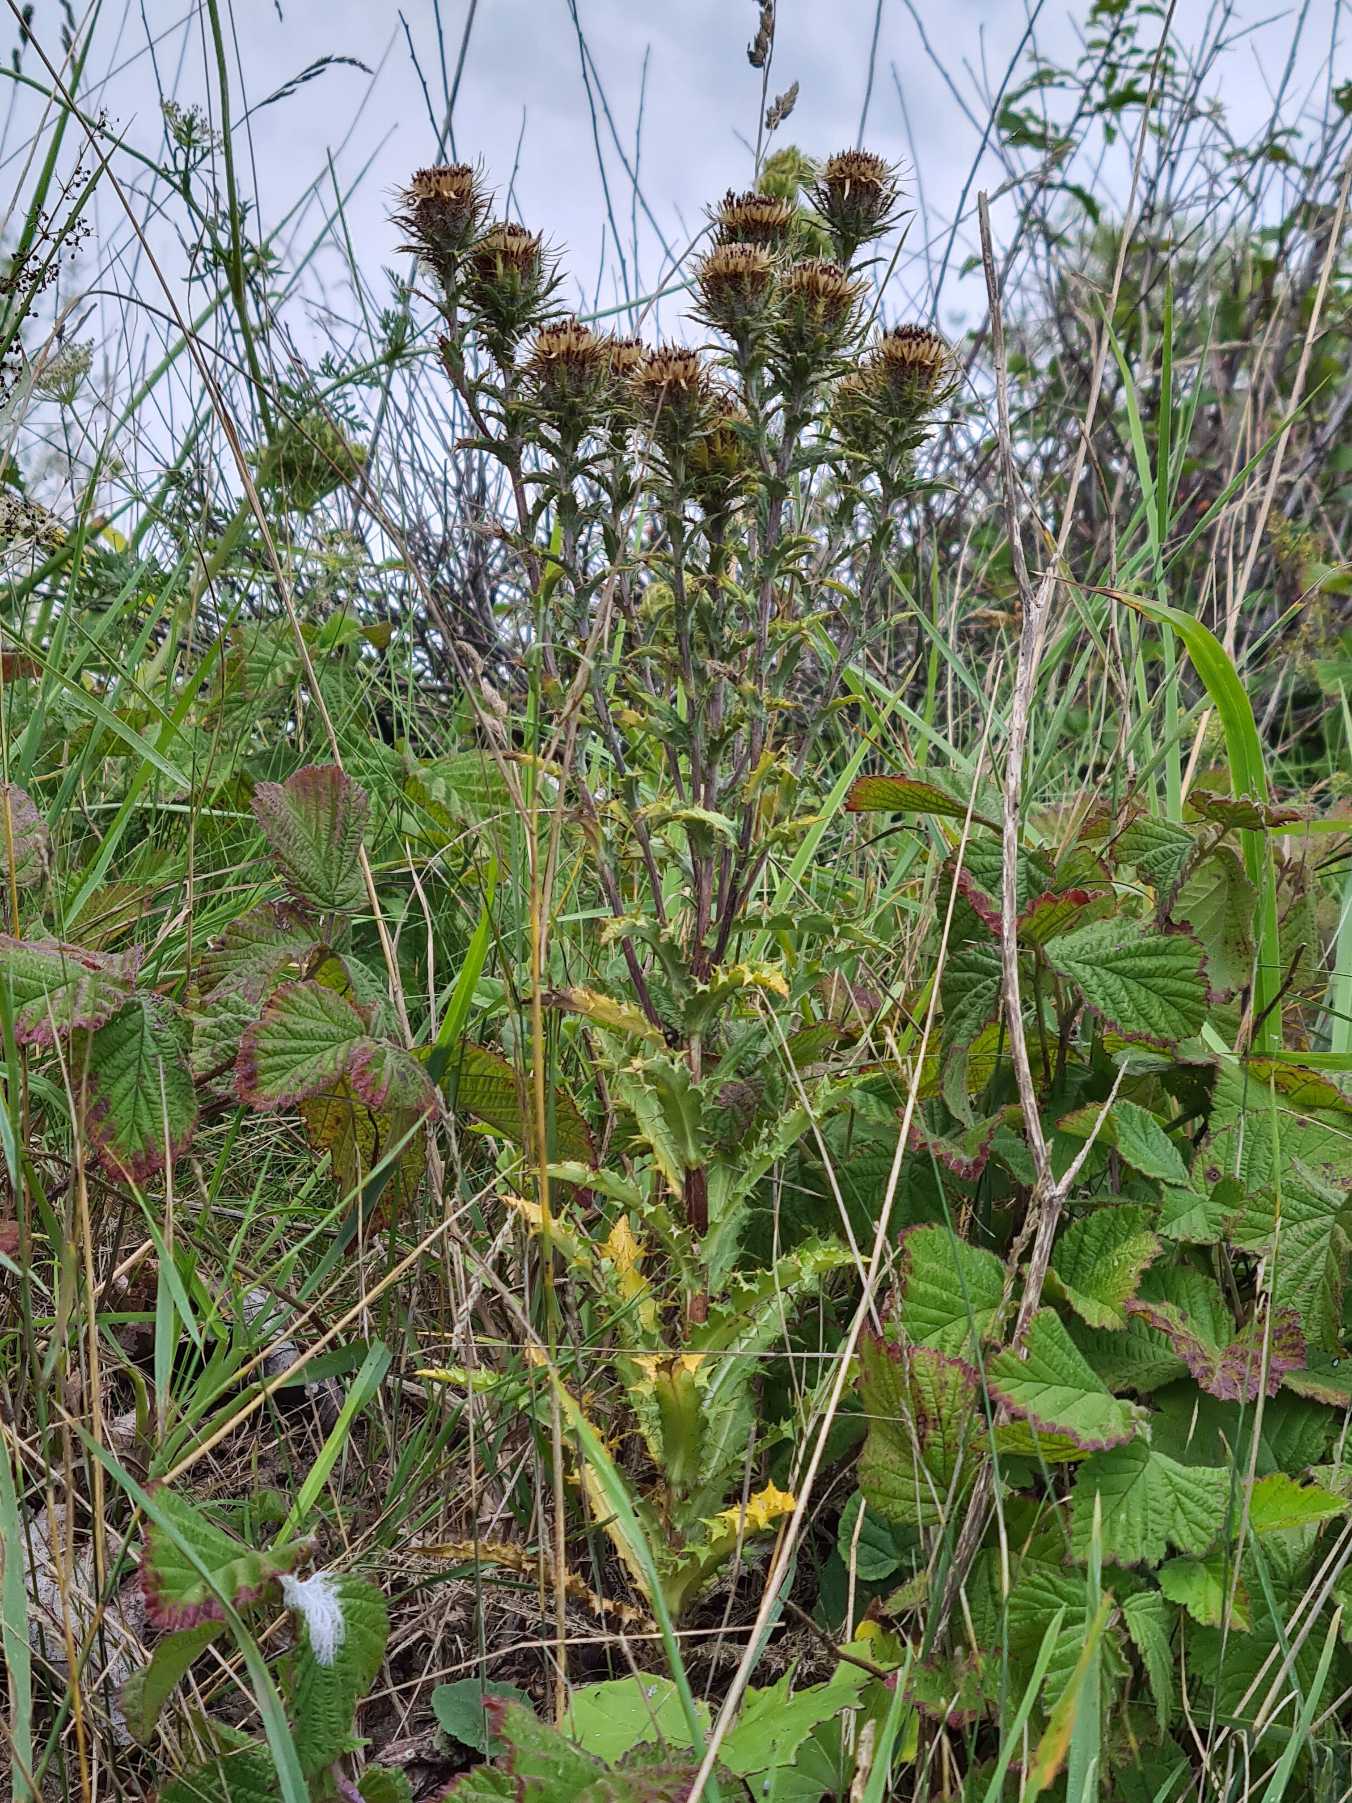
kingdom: Plantae
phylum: Tracheophyta
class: Magnoliopsida
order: Asterales
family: Asteraceae
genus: Carlina
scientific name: Carlina vulgaris
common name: Bakketidsel (underart)
